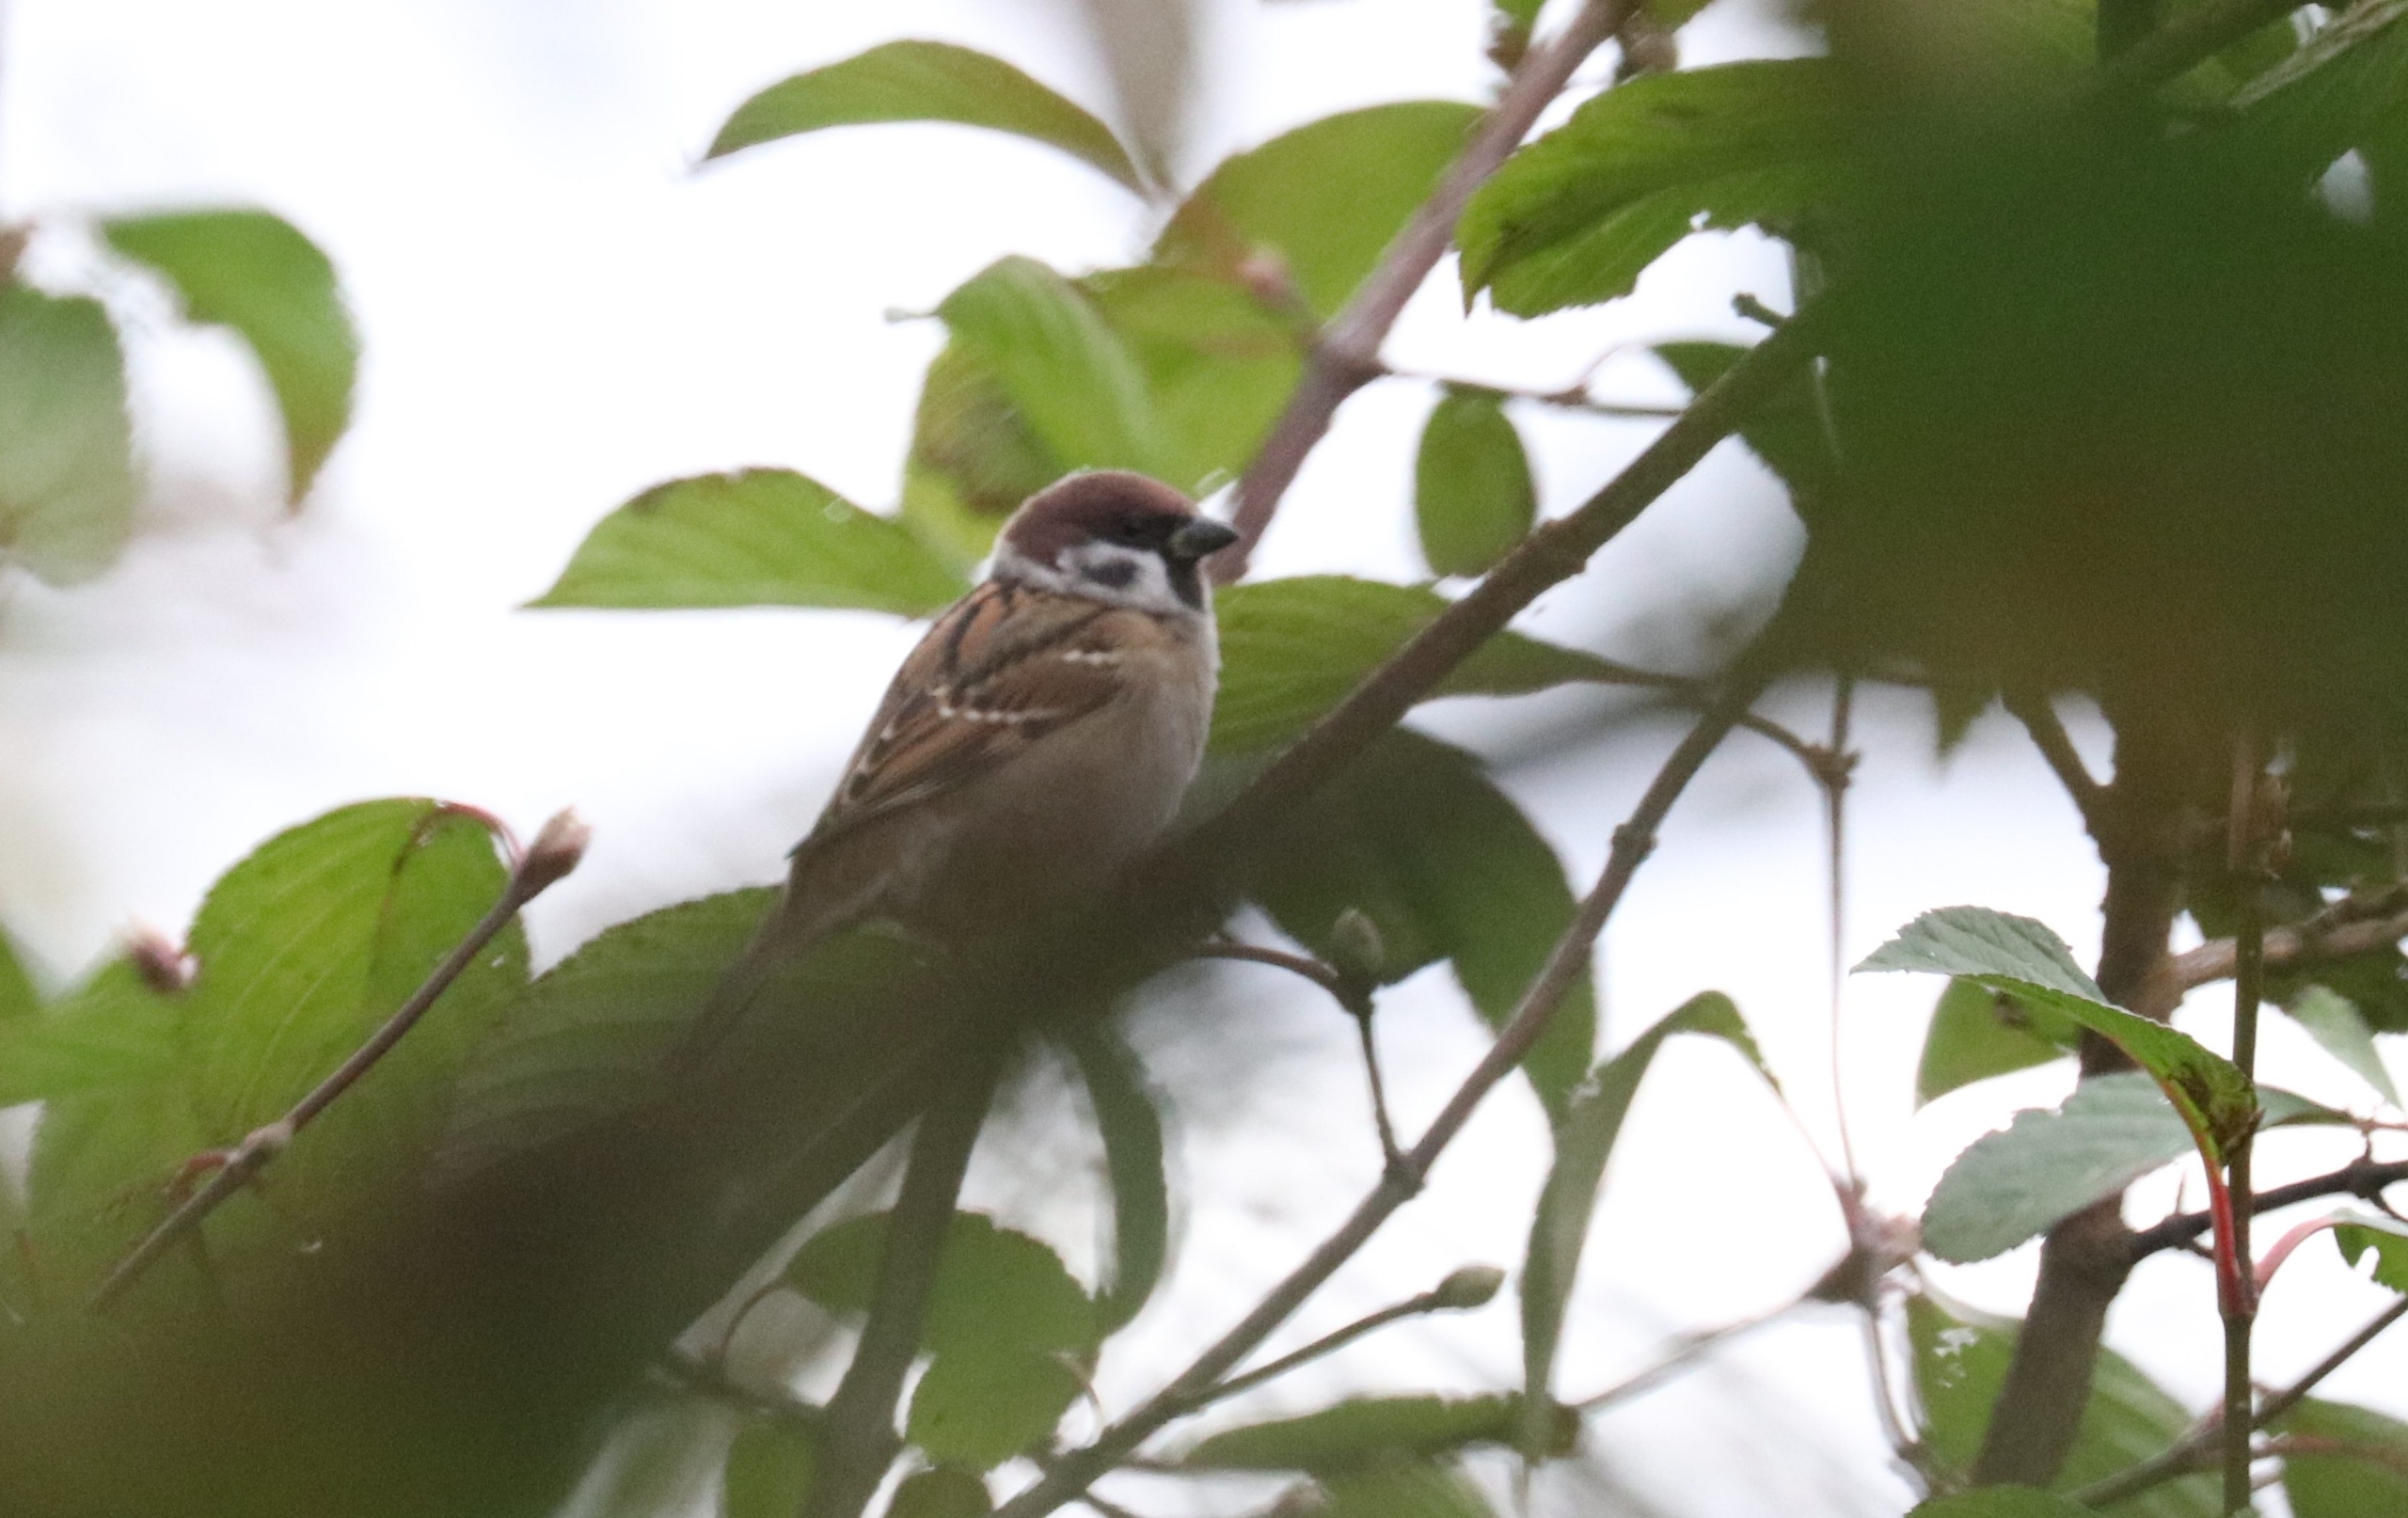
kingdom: Animalia
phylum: Chordata
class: Aves
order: Passeriformes
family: Passeridae
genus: Passer
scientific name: Passer montanus
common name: Skovspurv
